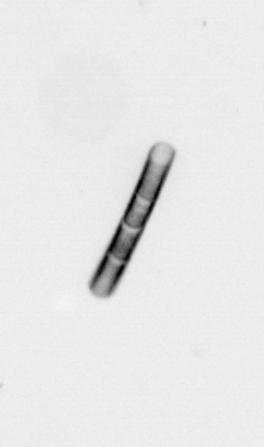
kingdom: Chromista
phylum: Ochrophyta
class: Bacillariophyceae
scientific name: Bacillariophyceae
